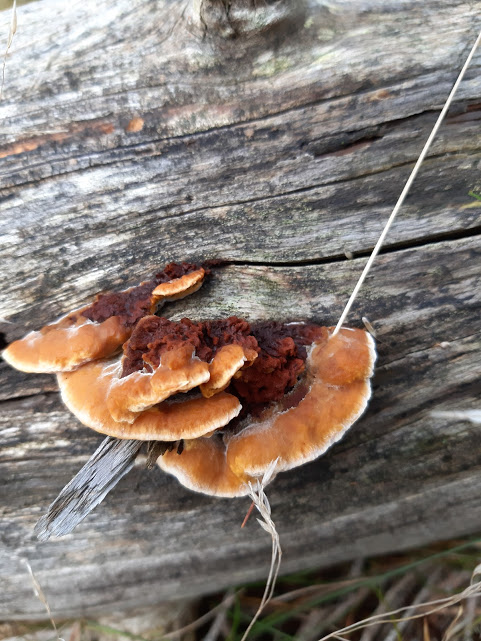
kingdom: Fungi
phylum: Basidiomycota
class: Agaricomycetes
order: Gloeophyllales
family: Gloeophyllaceae
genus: Gloeophyllum
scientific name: Gloeophyllum sepiarium
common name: fyrre-korkhat
